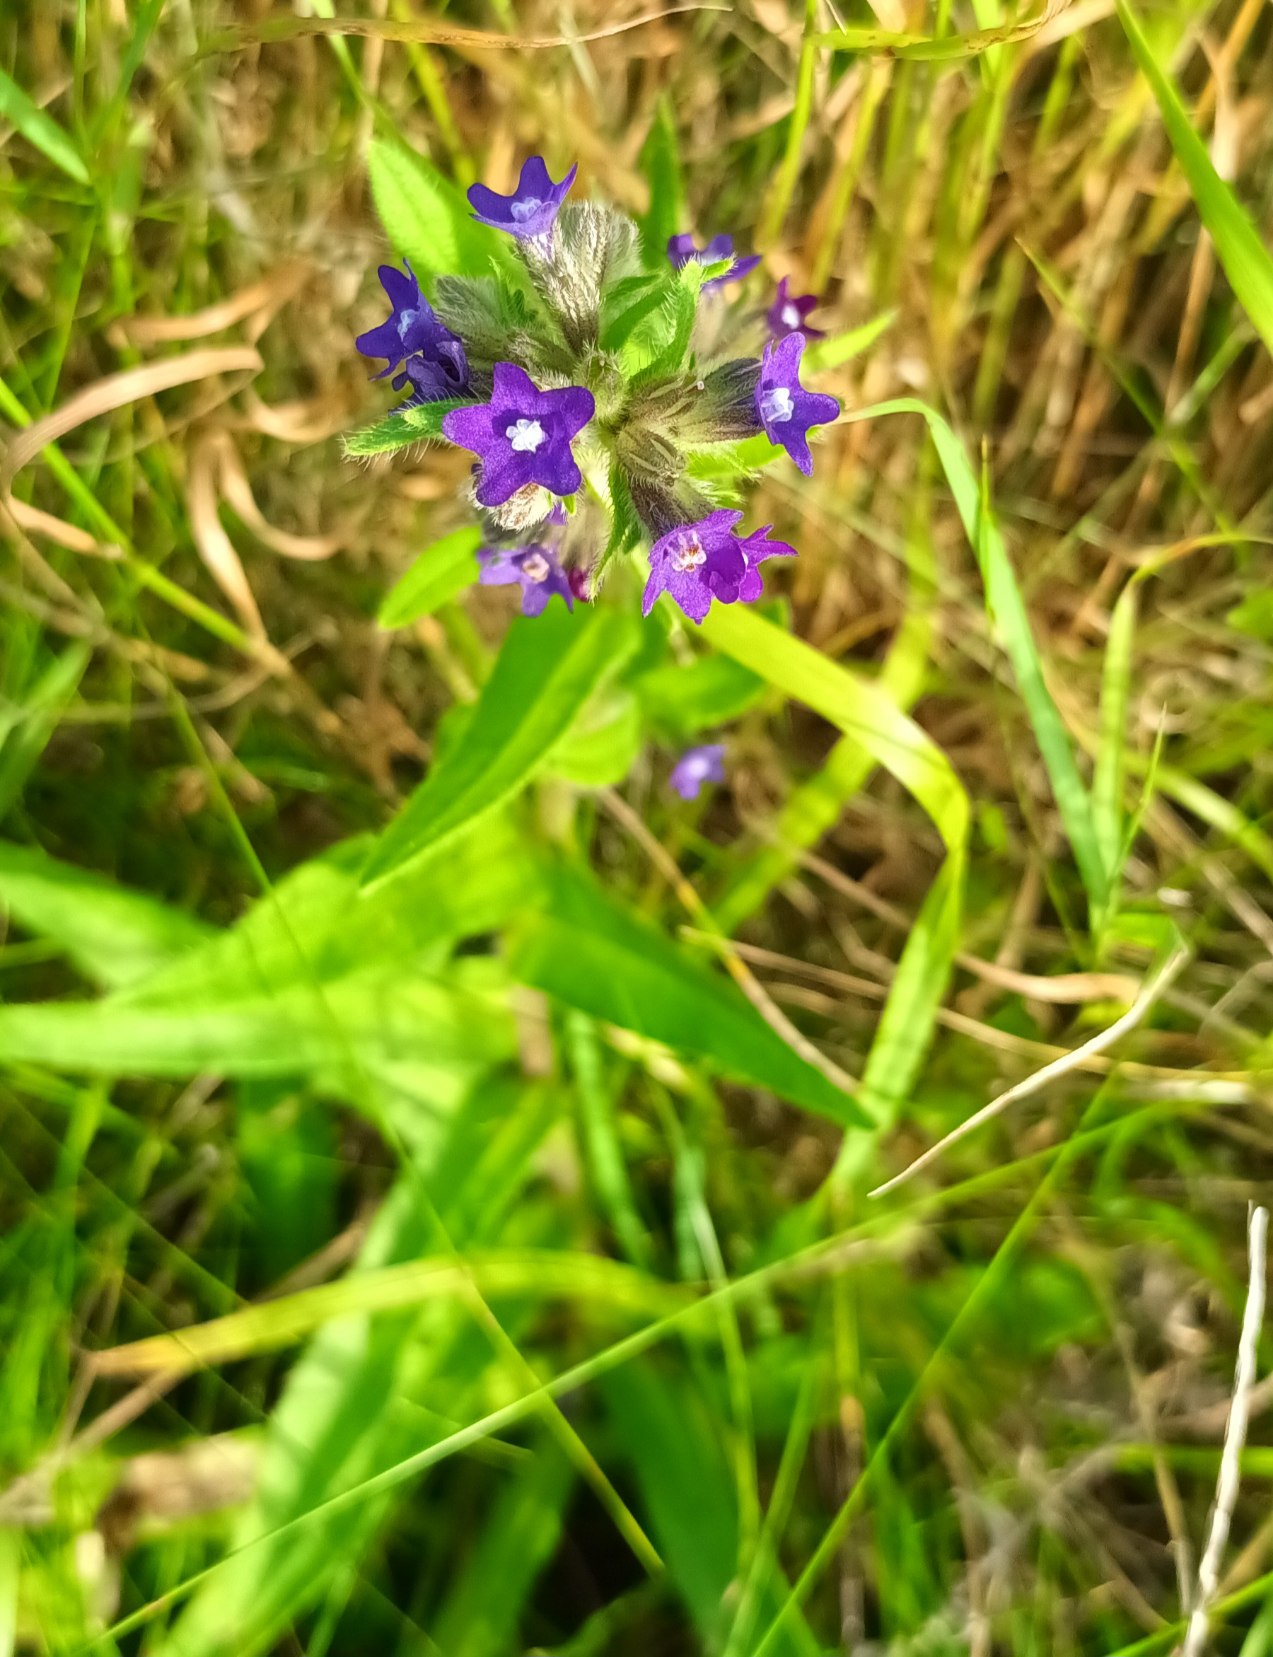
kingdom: Plantae
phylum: Tracheophyta
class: Magnoliopsida
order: Boraginales
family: Boraginaceae
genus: Anchusa
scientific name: Anchusa officinalis
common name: Læge-oksetunge
